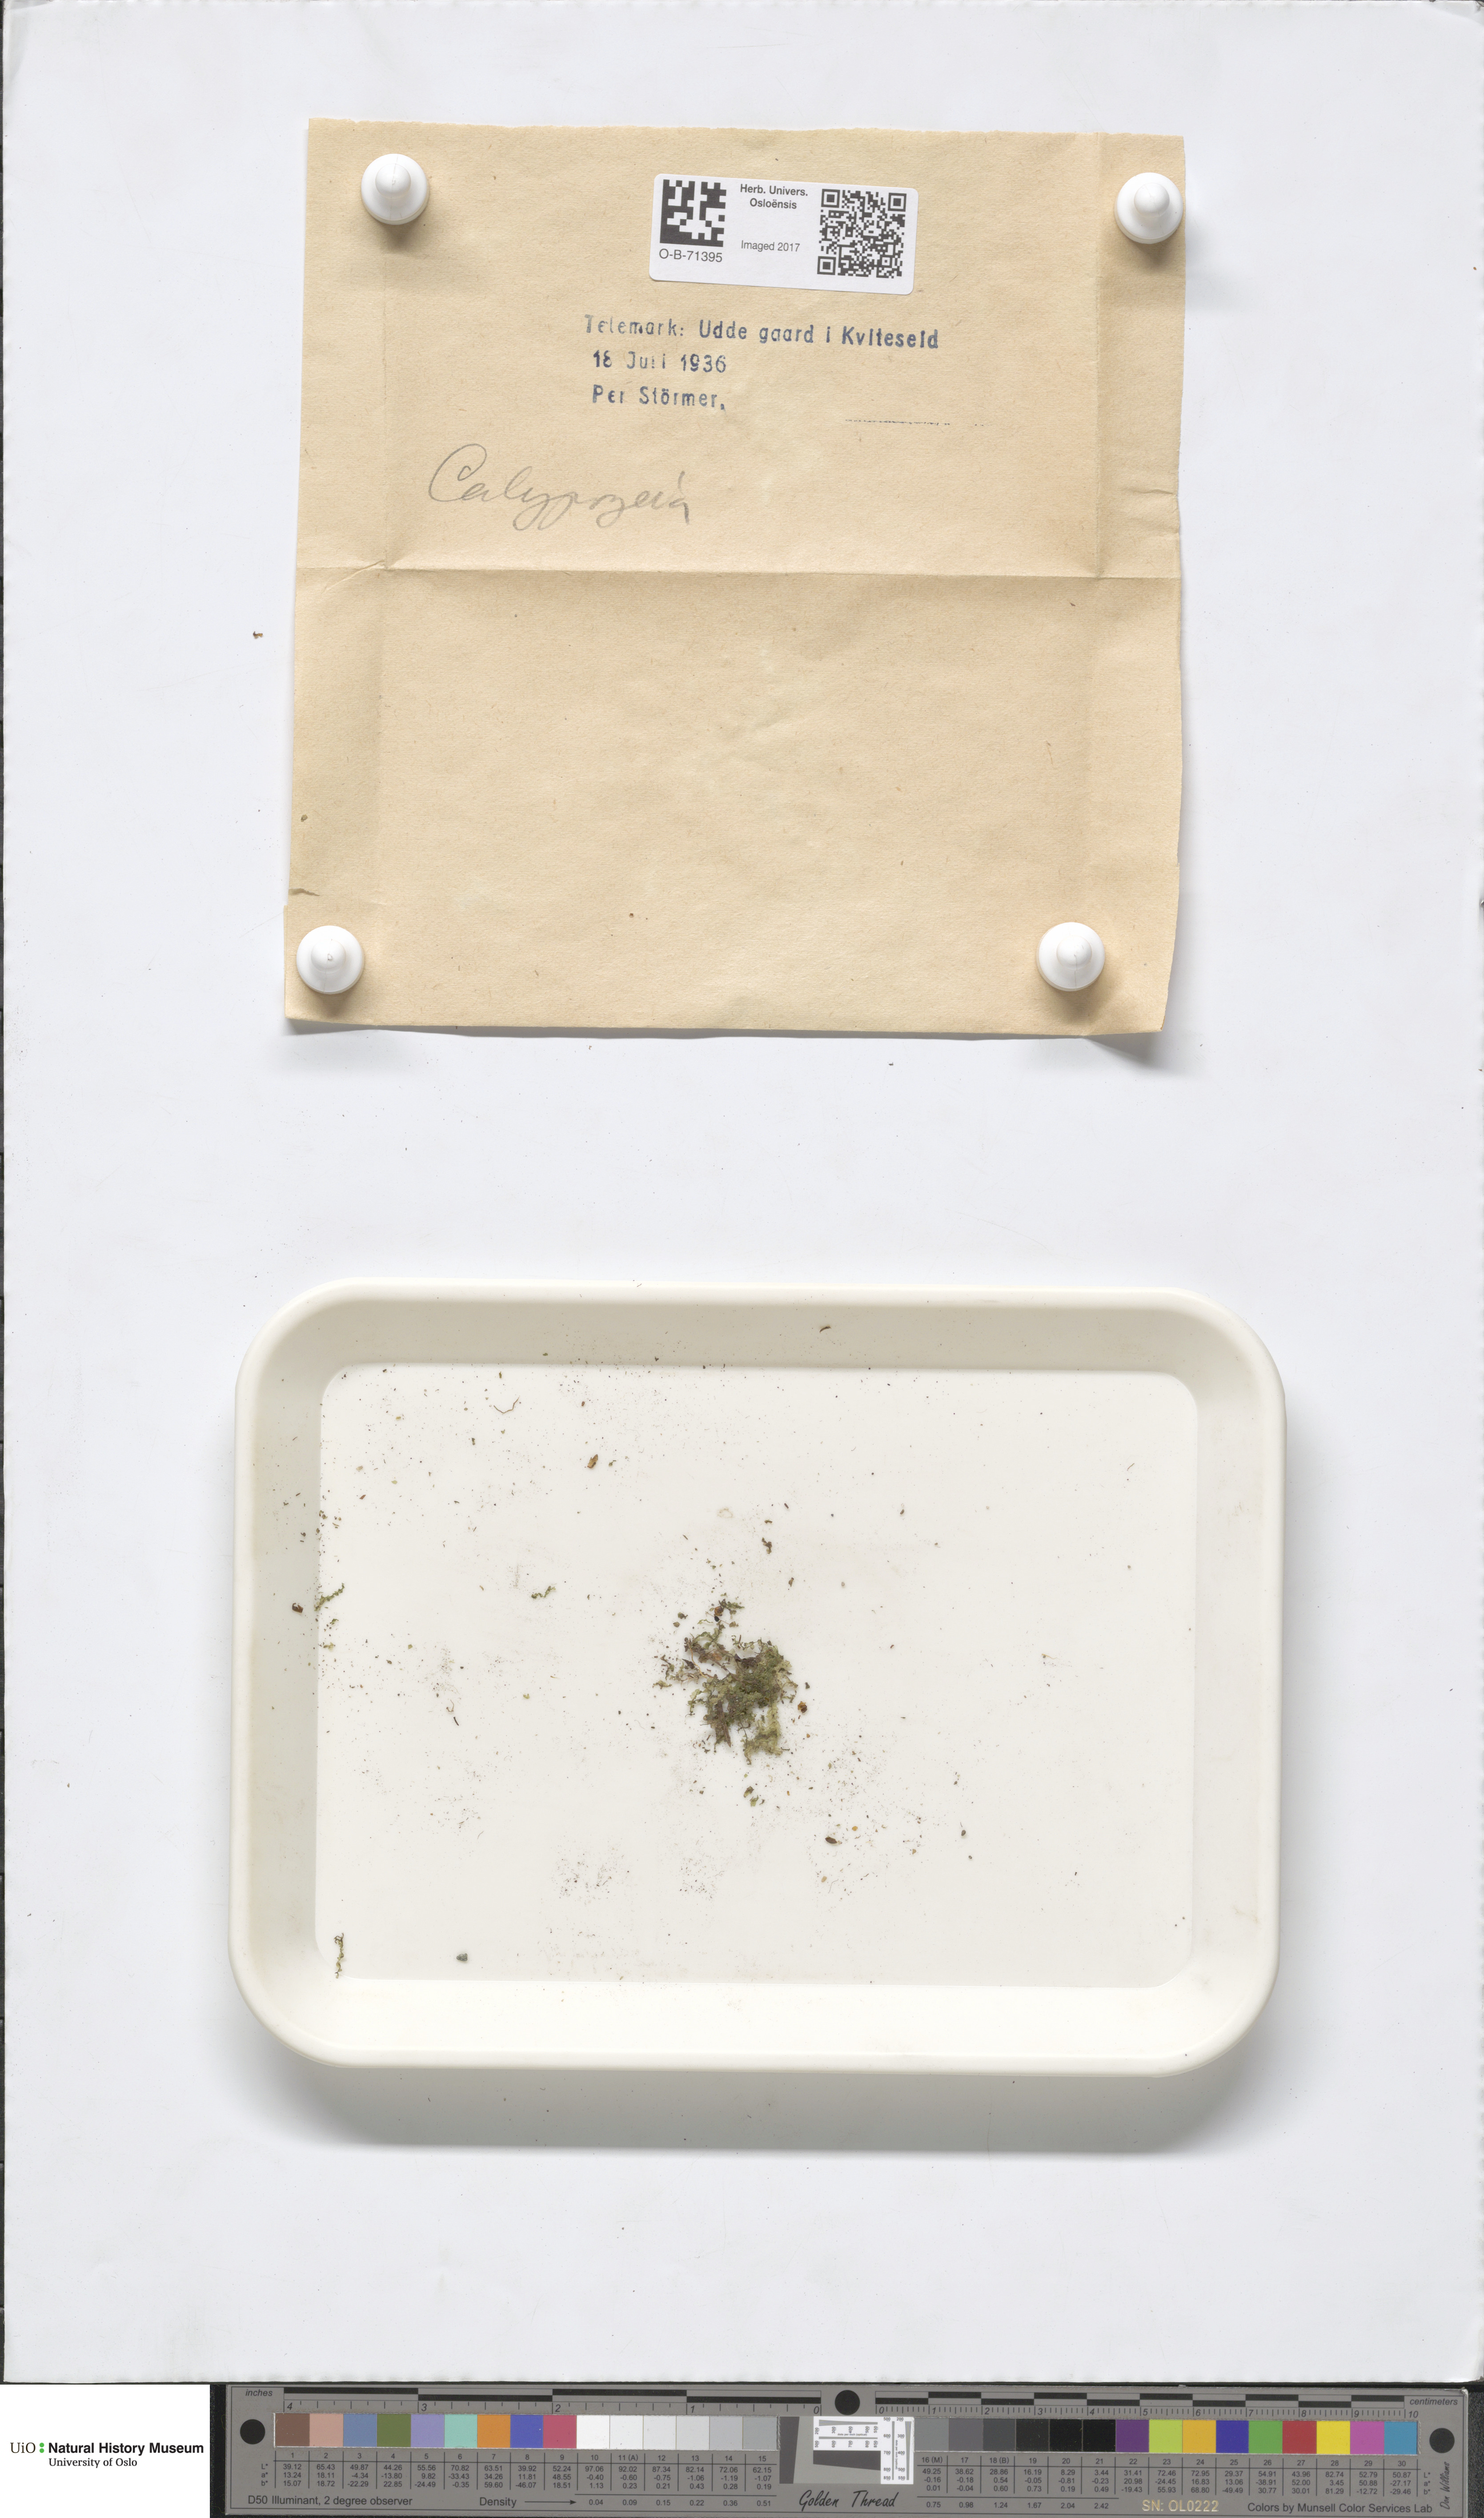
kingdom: Plantae
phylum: Marchantiophyta
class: Jungermanniopsida
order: Jungermanniales
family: Calypogeiaceae
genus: Calypogeia
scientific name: Calypogeia
